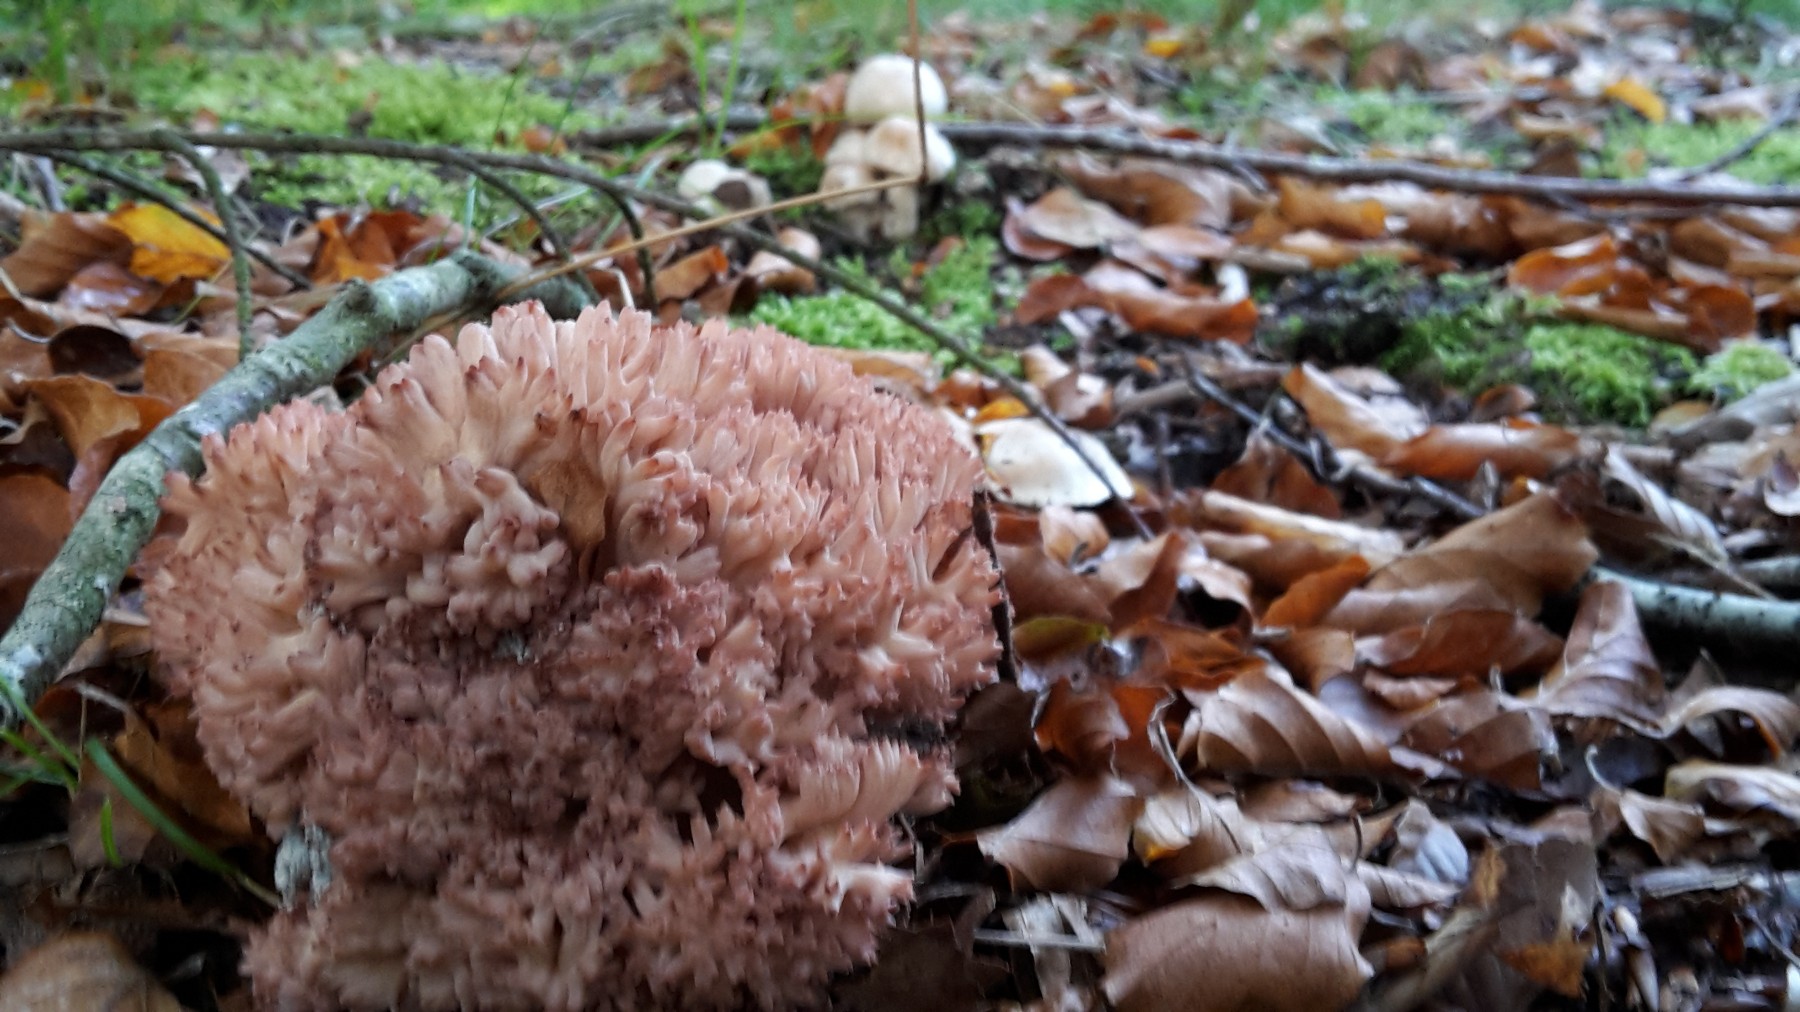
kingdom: Fungi
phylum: Basidiomycota
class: Agaricomycetes
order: Gomphales
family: Gomphaceae
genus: Ramaria
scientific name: Ramaria botrytis
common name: drue-koralsvamp
